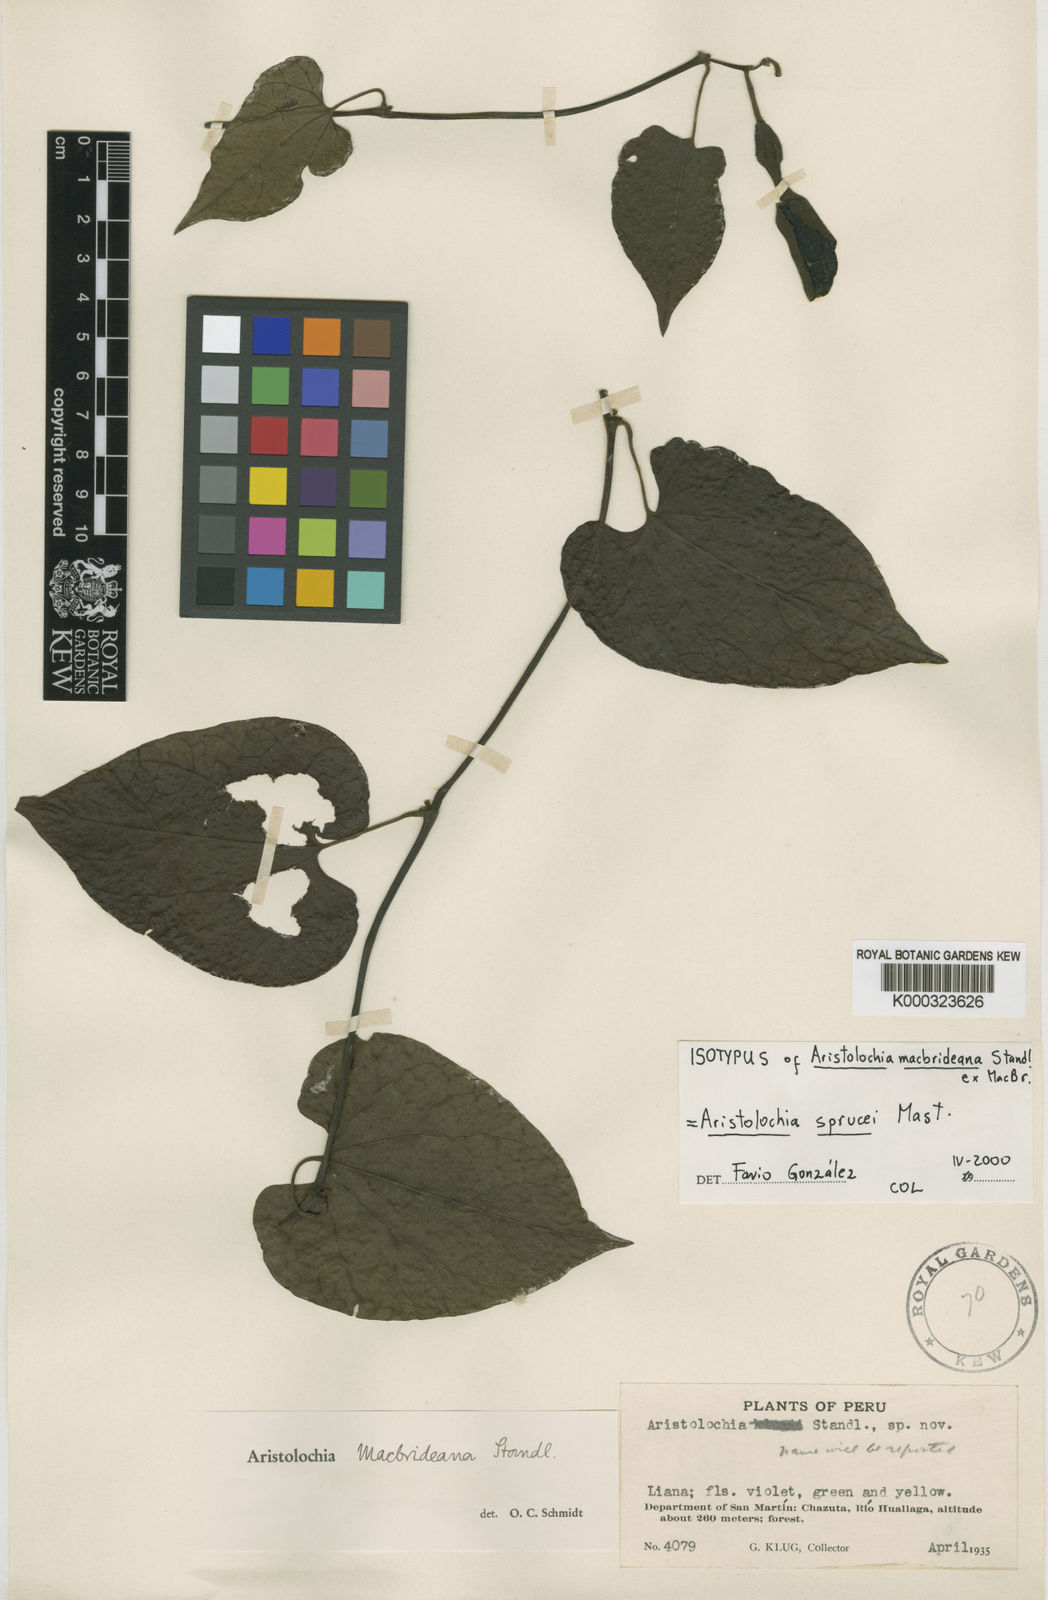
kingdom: Plantae
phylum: Tracheophyta
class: Magnoliopsida
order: Piperales
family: Aristolochiaceae
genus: Aristolochia
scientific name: Aristolochia
